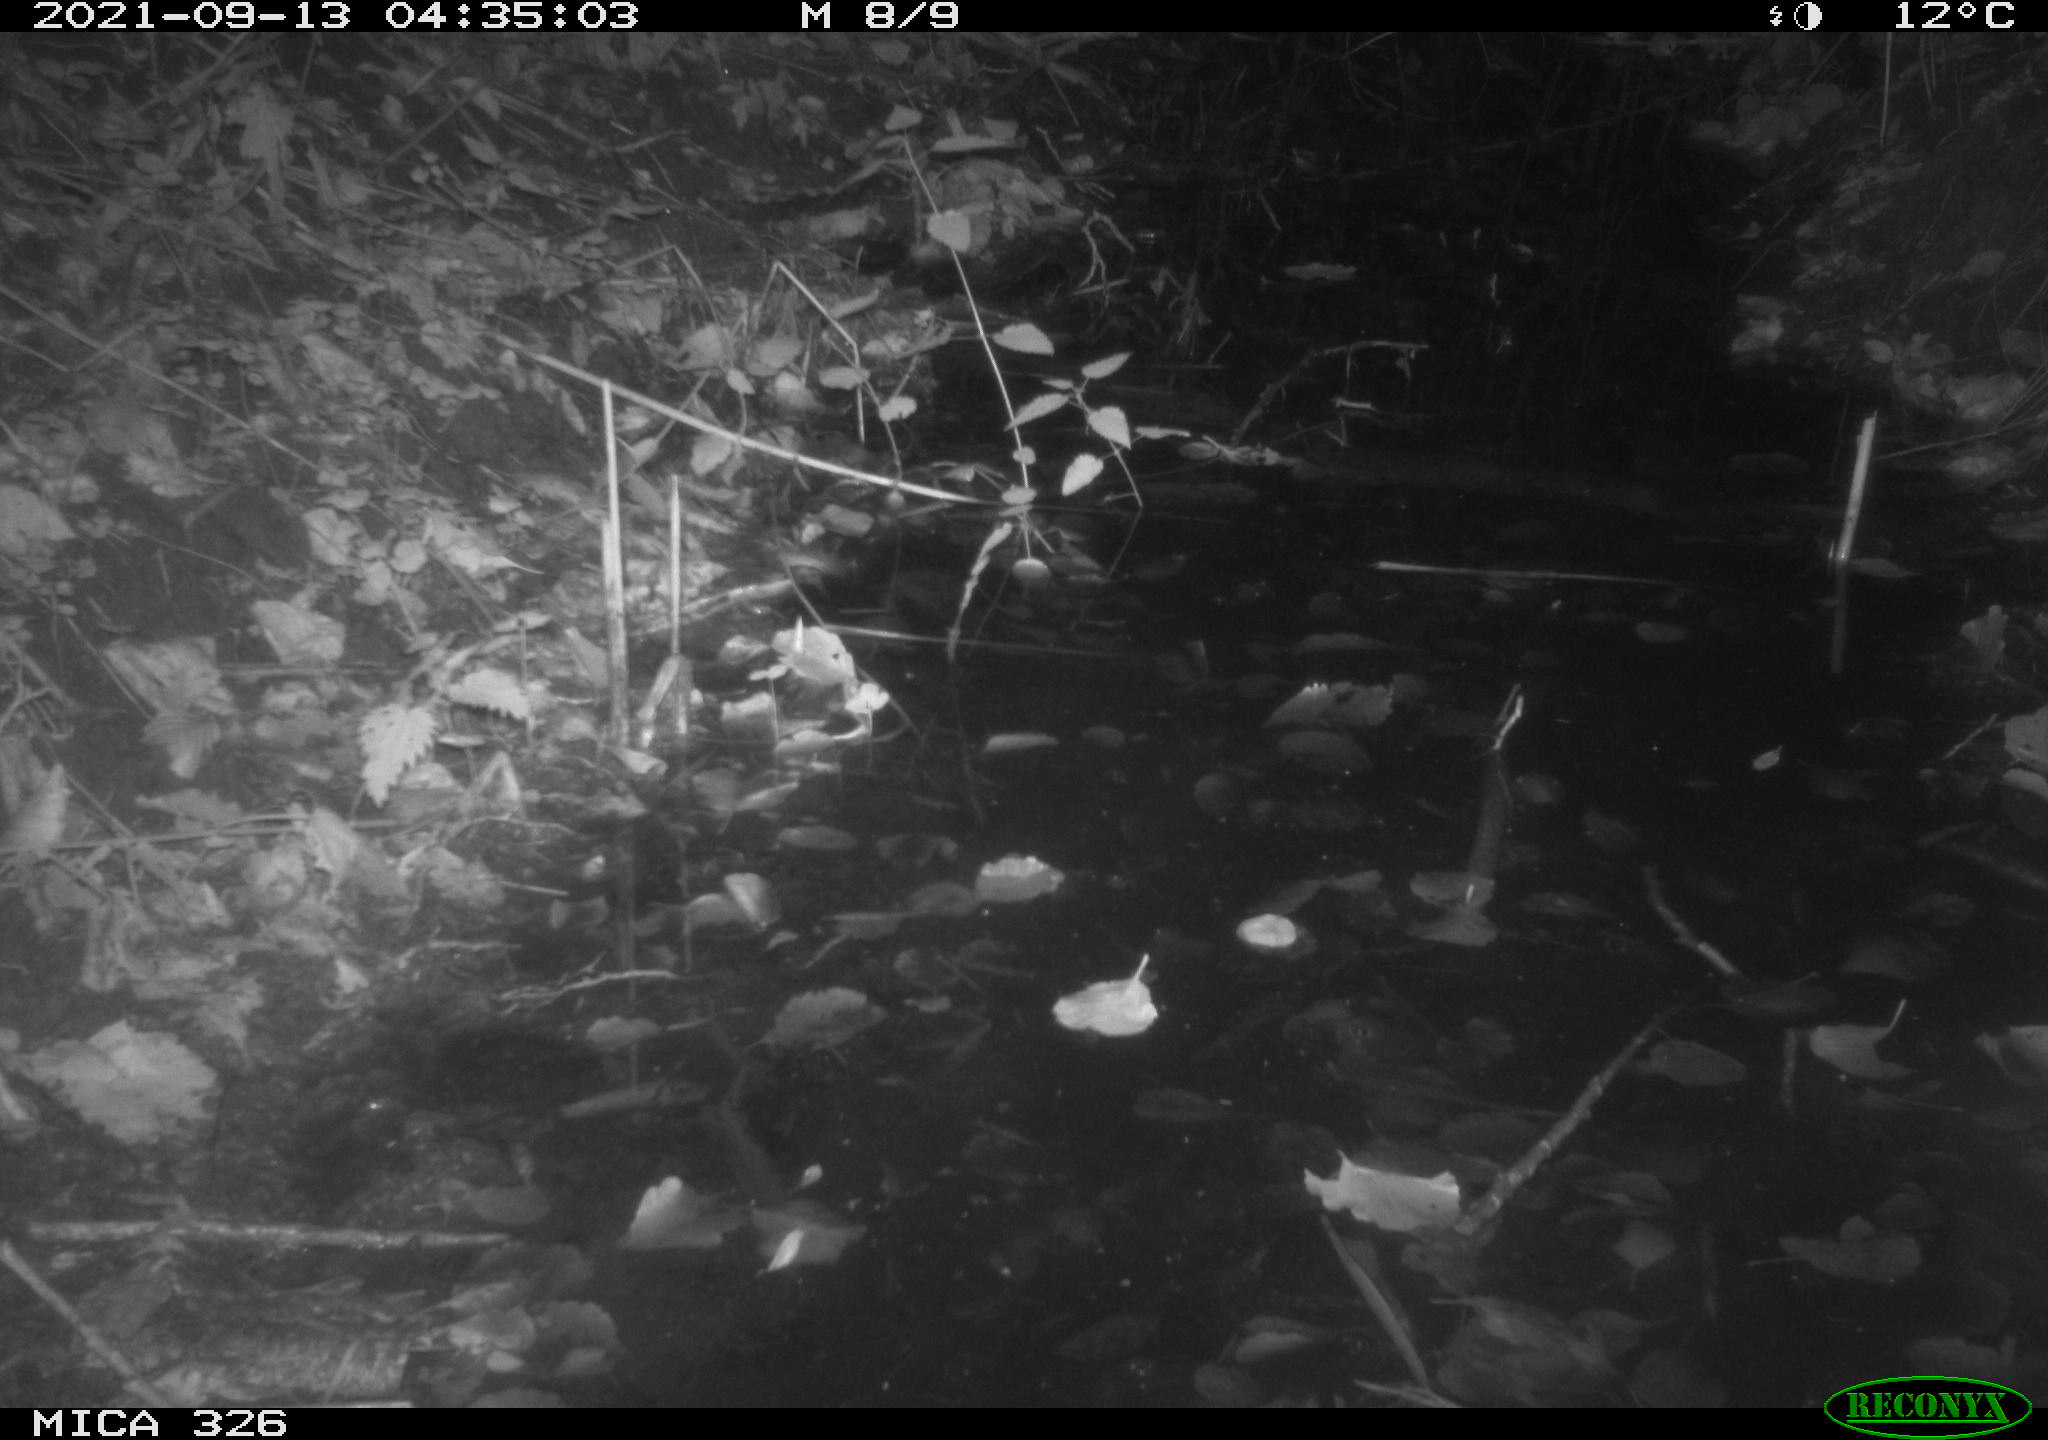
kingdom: Animalia
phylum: Chordata
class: Mammalia
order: Rodentia
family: Myocastoridae
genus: Myocastor
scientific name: Myocastor coypus
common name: Coypu
